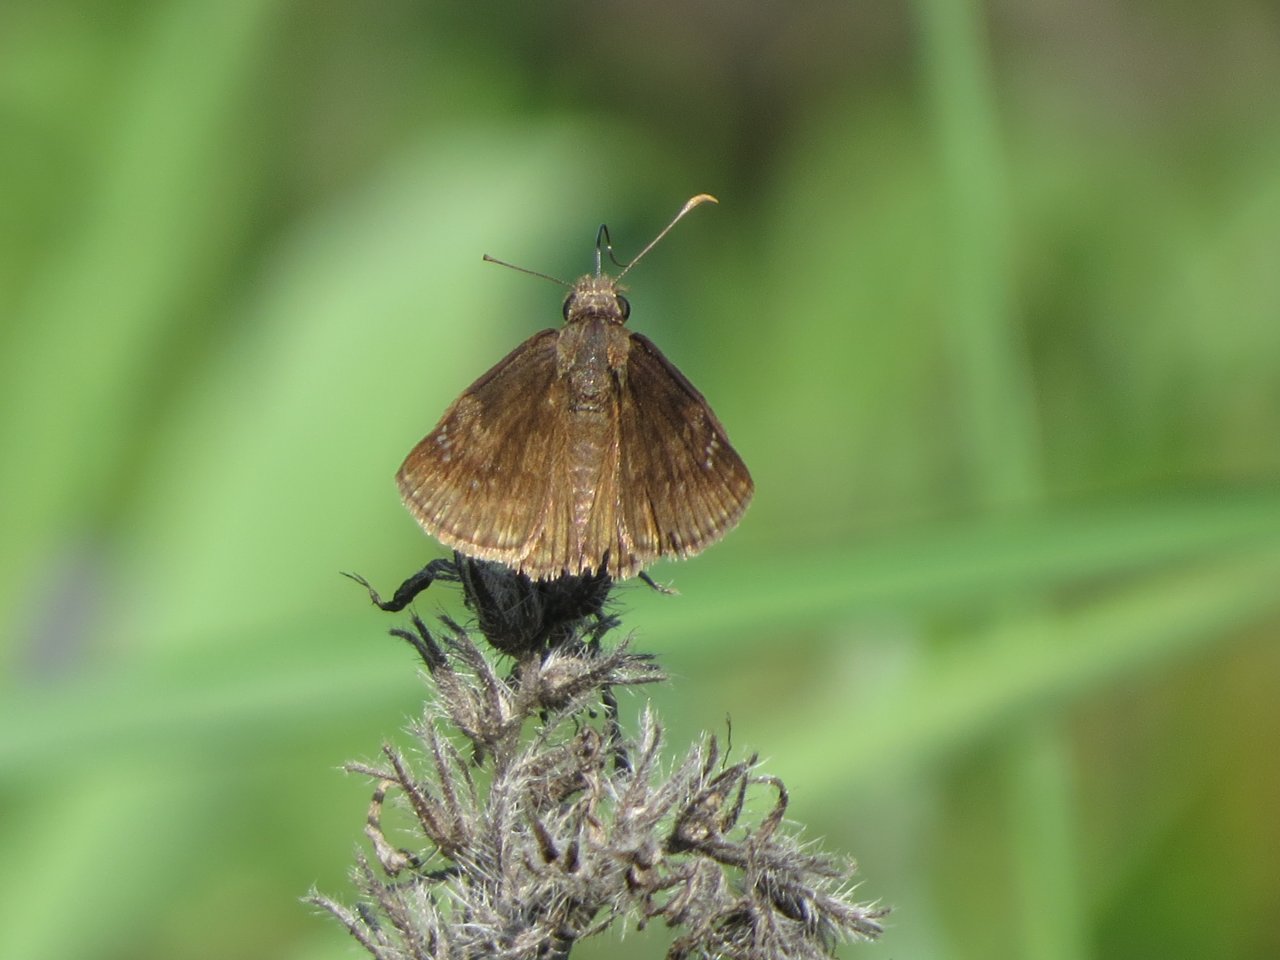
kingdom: Animalia
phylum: Arthropoda
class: Insecta
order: Lepidoptera
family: Hesperiidae
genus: Gesta
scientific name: Gesta
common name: Wild Indigo Duskywing
